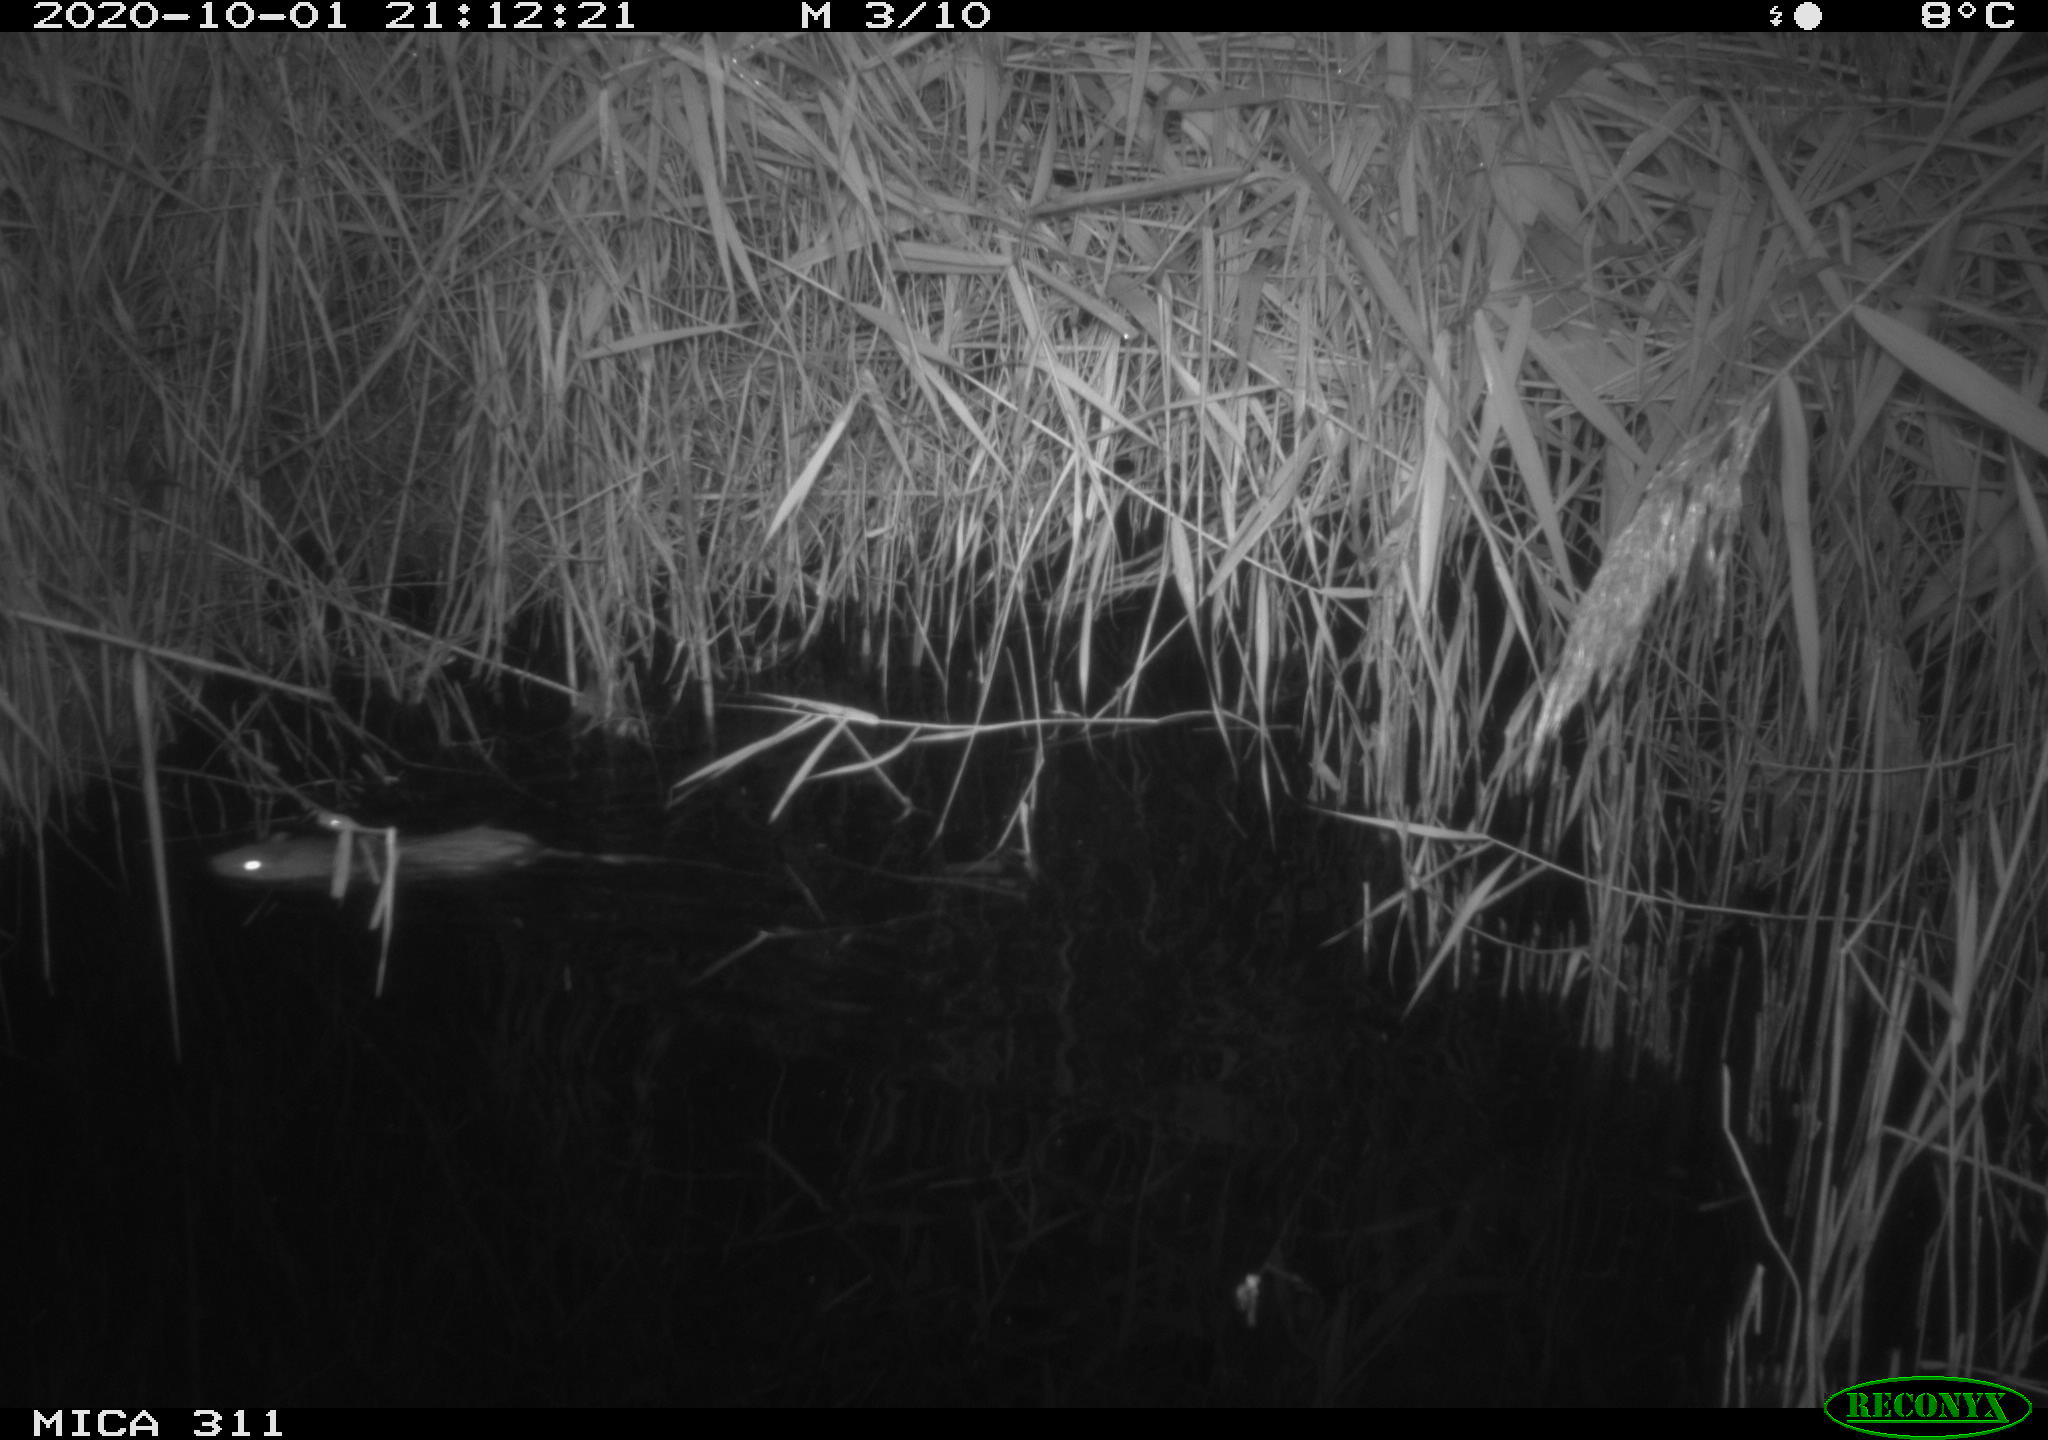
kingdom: Animalia
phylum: Chordata
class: Mammalia
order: Rodentia
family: Muridae
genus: Rattus
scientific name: Rattus norvegicus
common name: Brown rat
